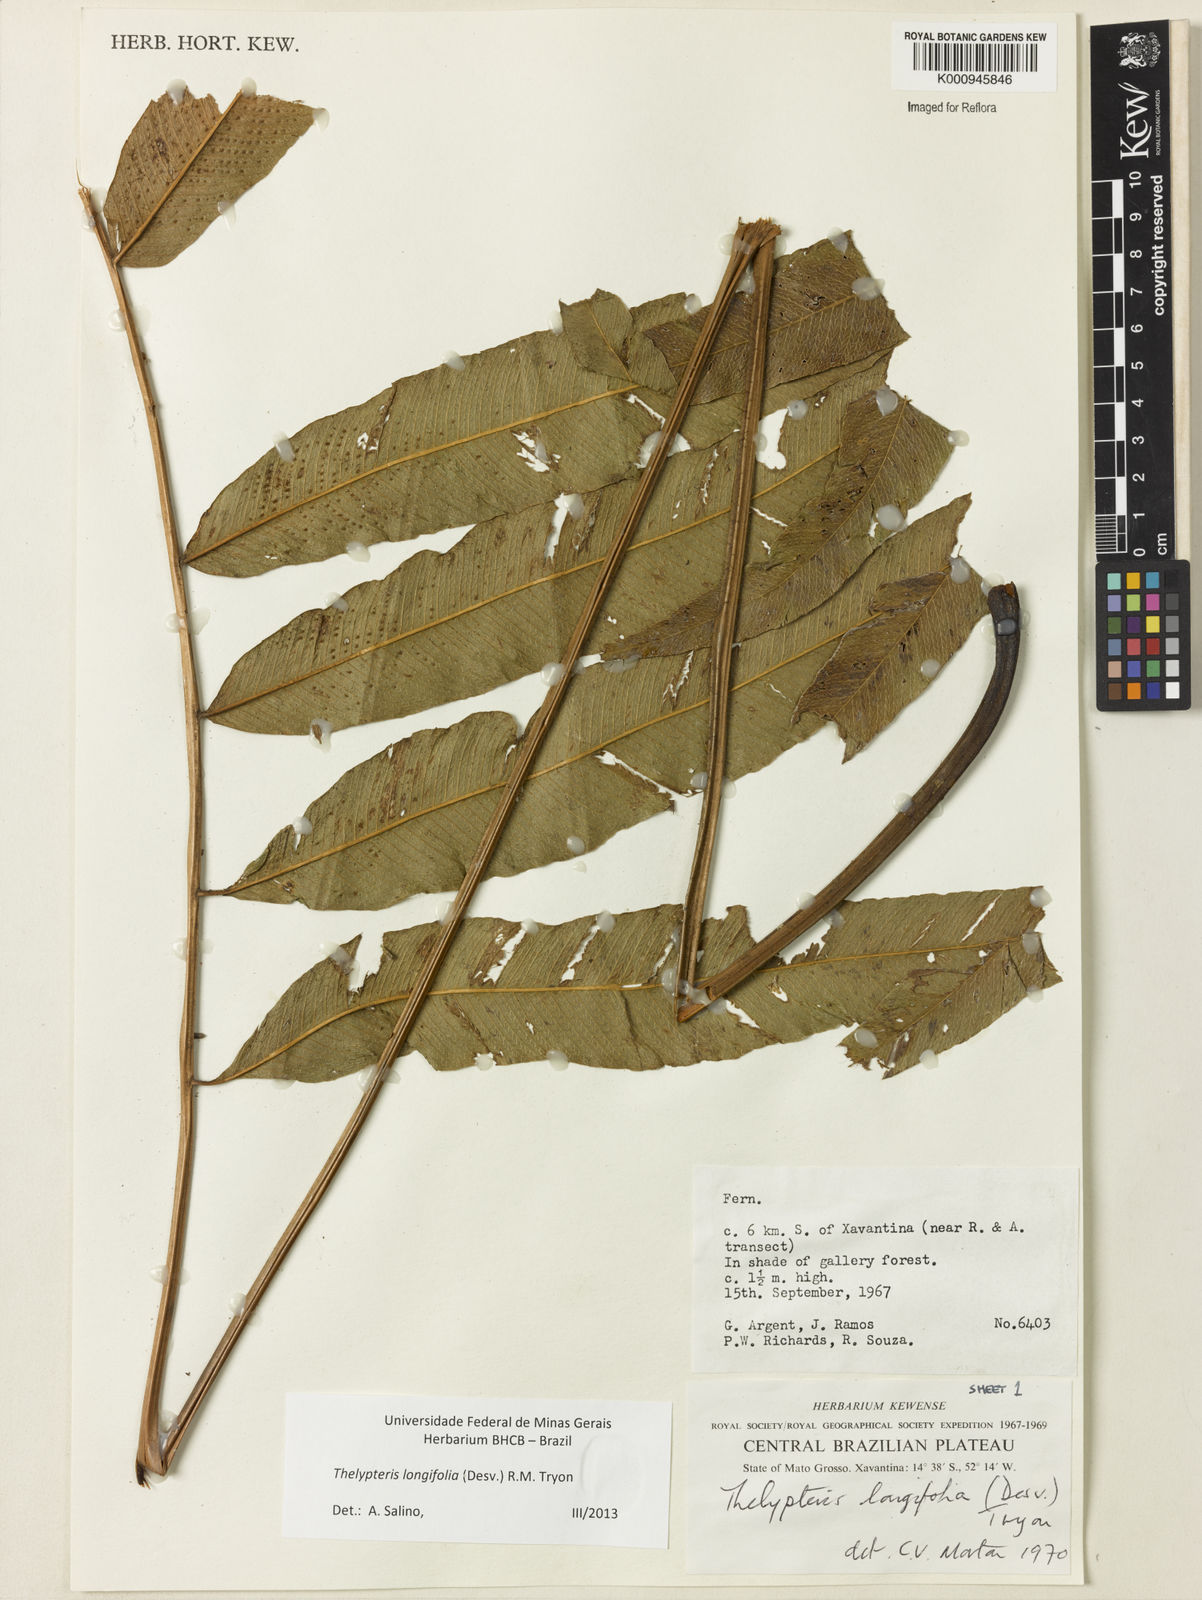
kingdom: Plantae
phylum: Tracheophyta
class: Polypodiopsida
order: Polypodiales
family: Thelypteridaceae
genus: Meniscium
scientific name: Meniscium longifolium
